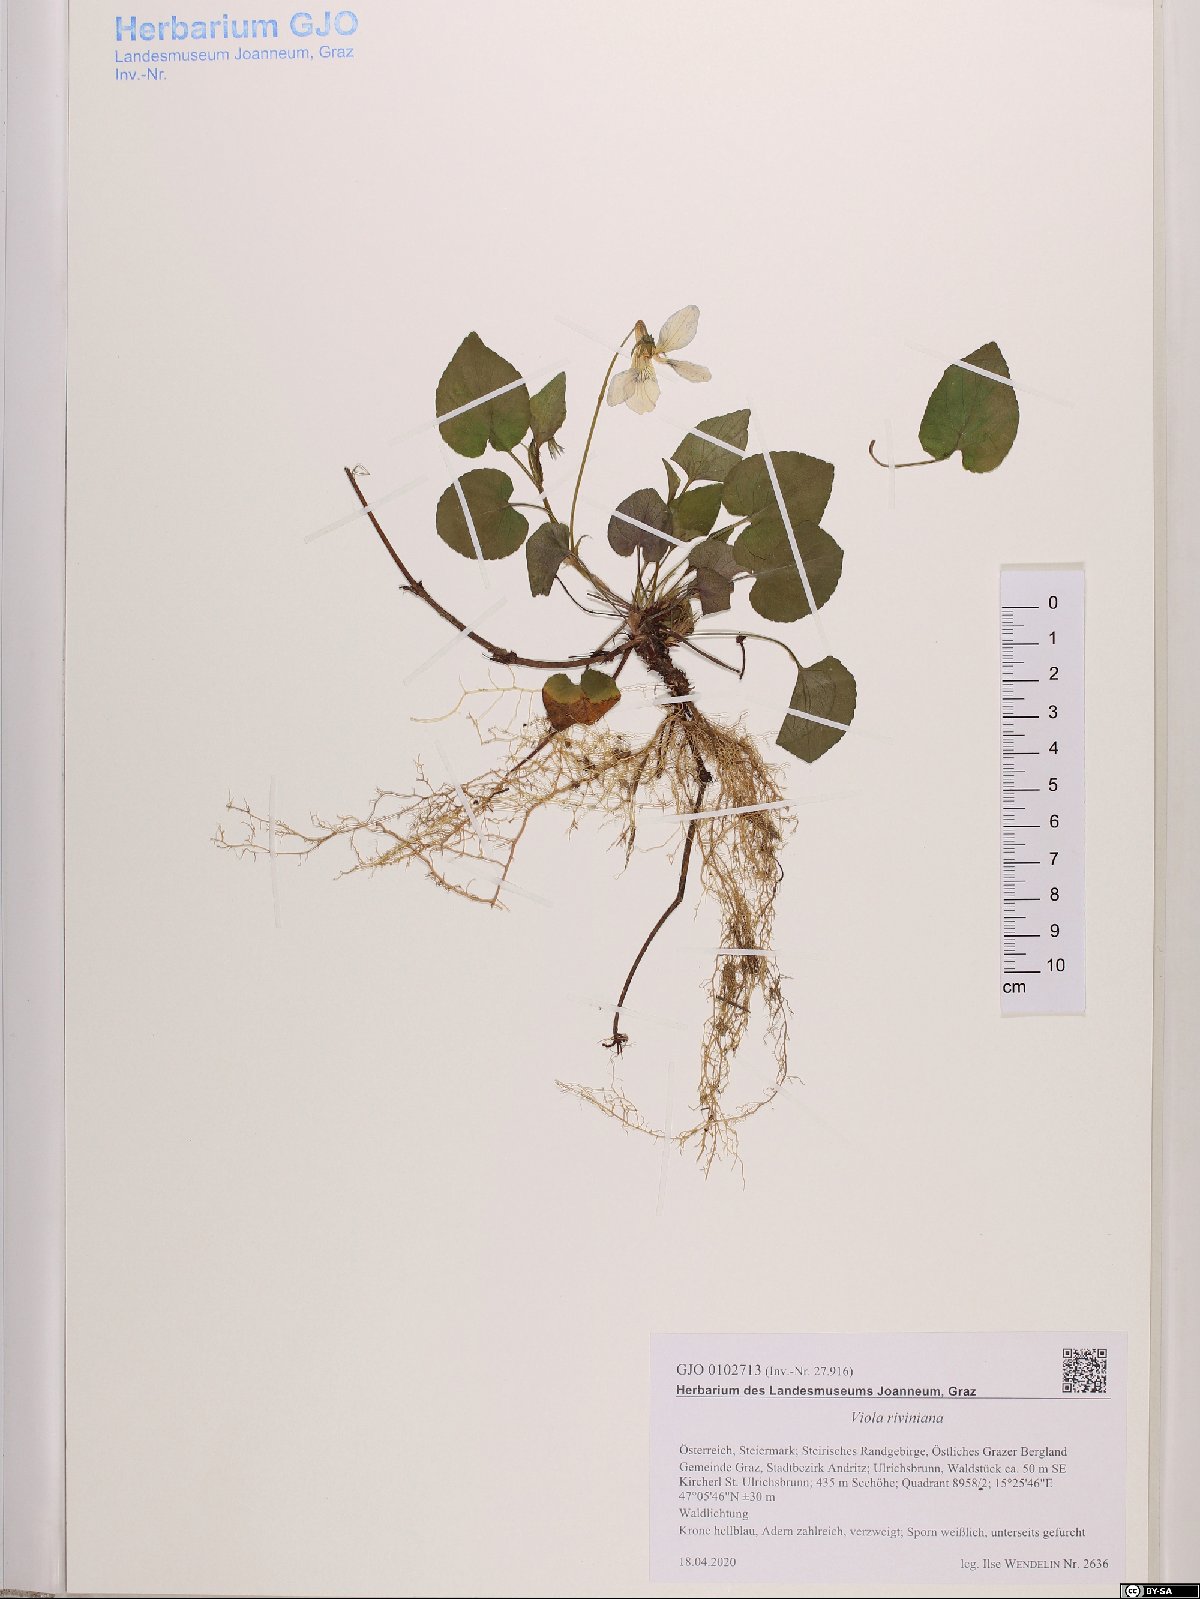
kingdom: Plantae
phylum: Tracheophyta
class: Magnoliopsida
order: Malpighiales
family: Violaceae
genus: Viola
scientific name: Viola riviniana
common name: Common dog-violet
